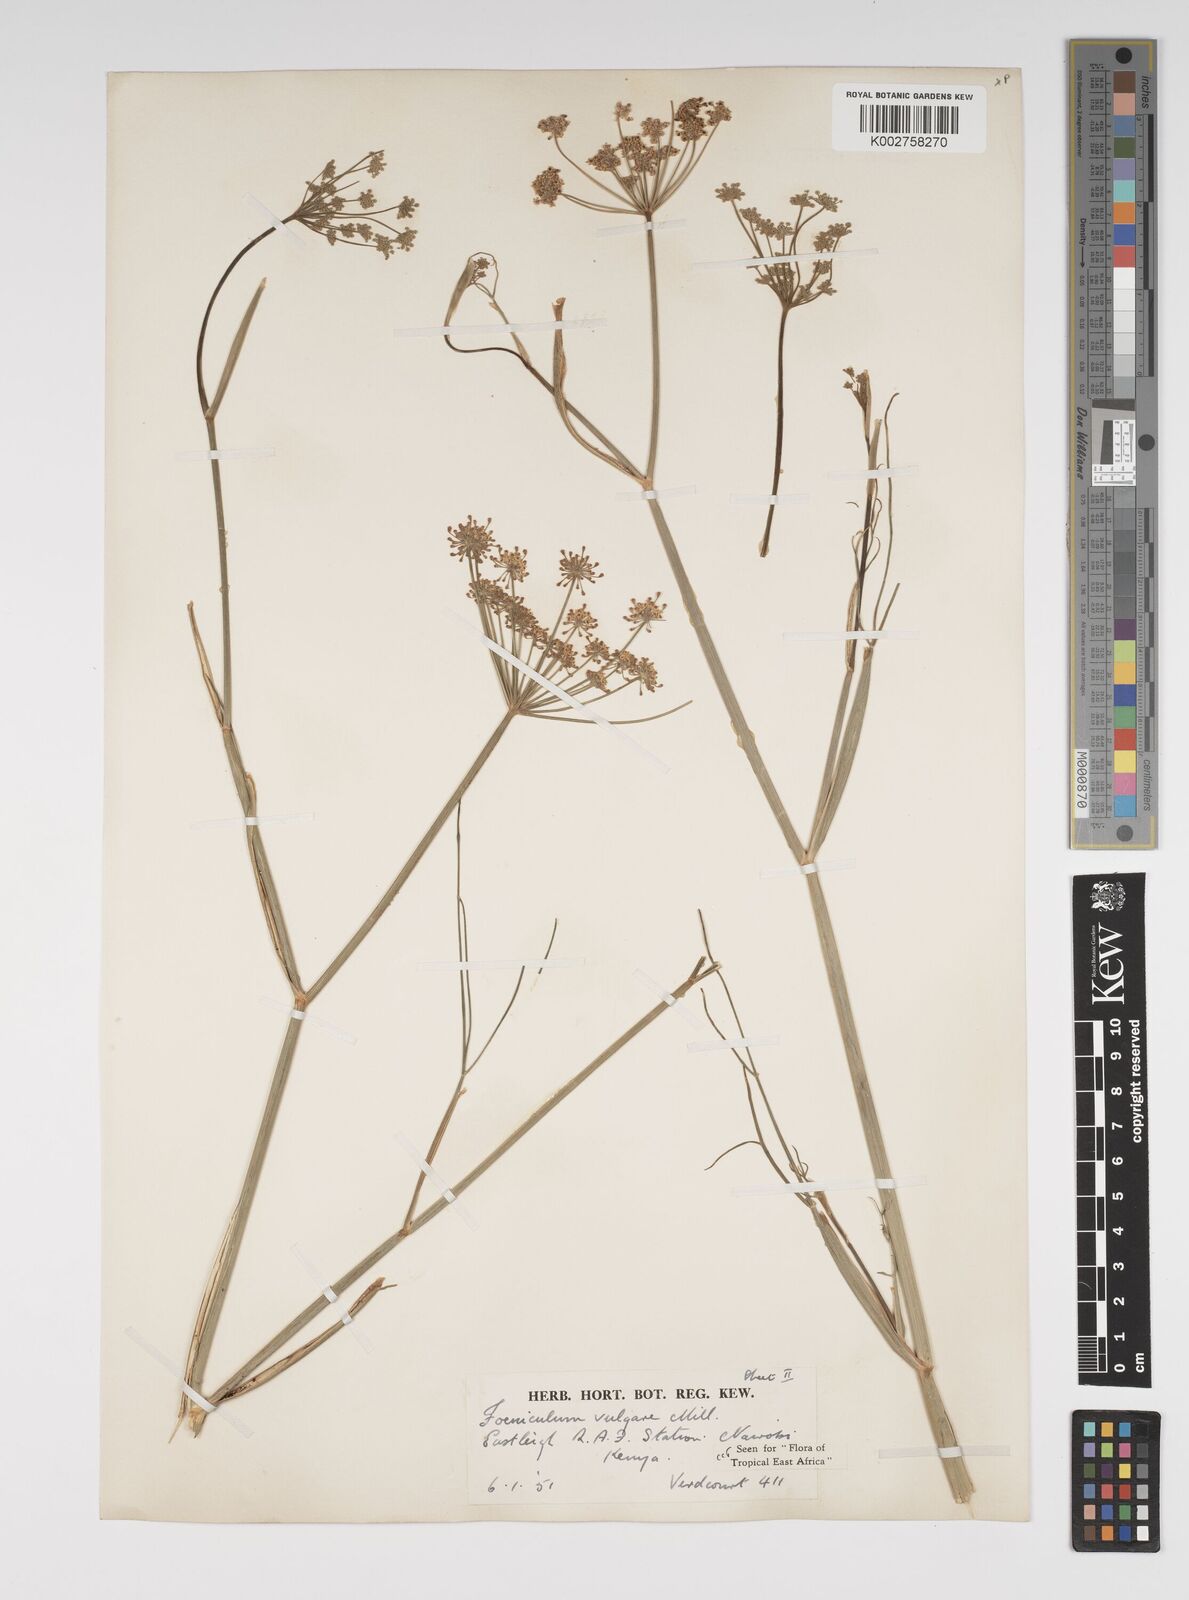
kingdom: Plantae
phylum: Tracheophyta
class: Magnoliopsida
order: Apiales
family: Apiaceae
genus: Foeniculum
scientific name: Foeniculum vulgare
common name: Fennel
